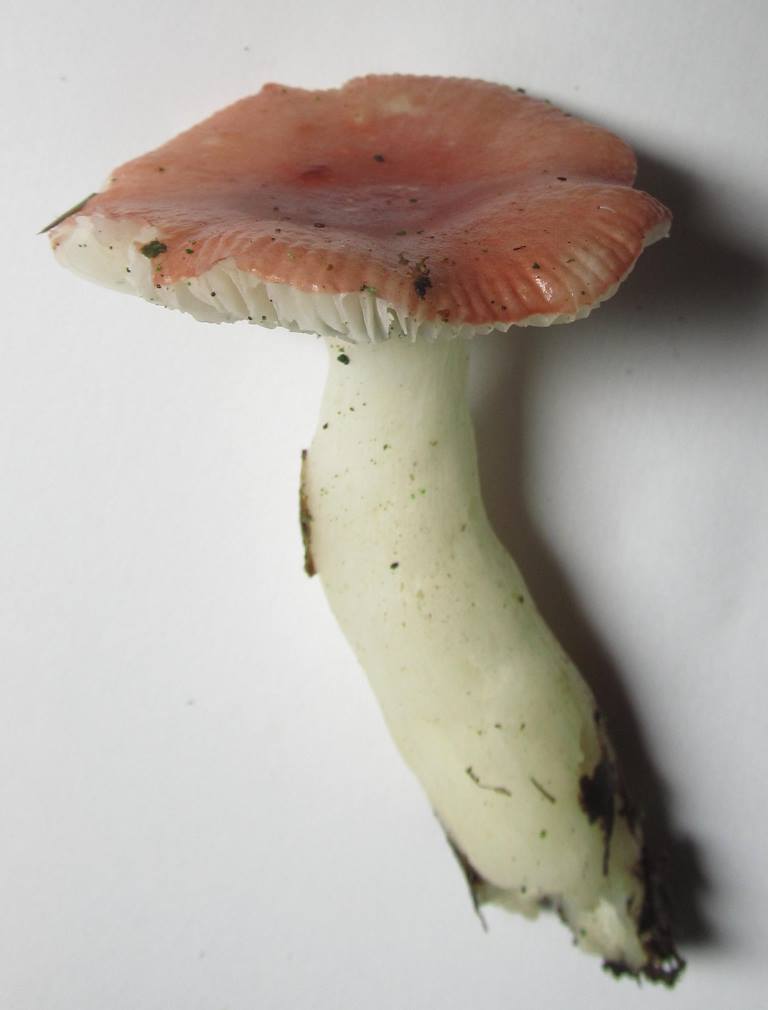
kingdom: Fungi
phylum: Basidiomycota
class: Agaricomycetes
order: Russulales
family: Russulaceae
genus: Russula
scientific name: Russula aquosa
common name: vand-skørhat
